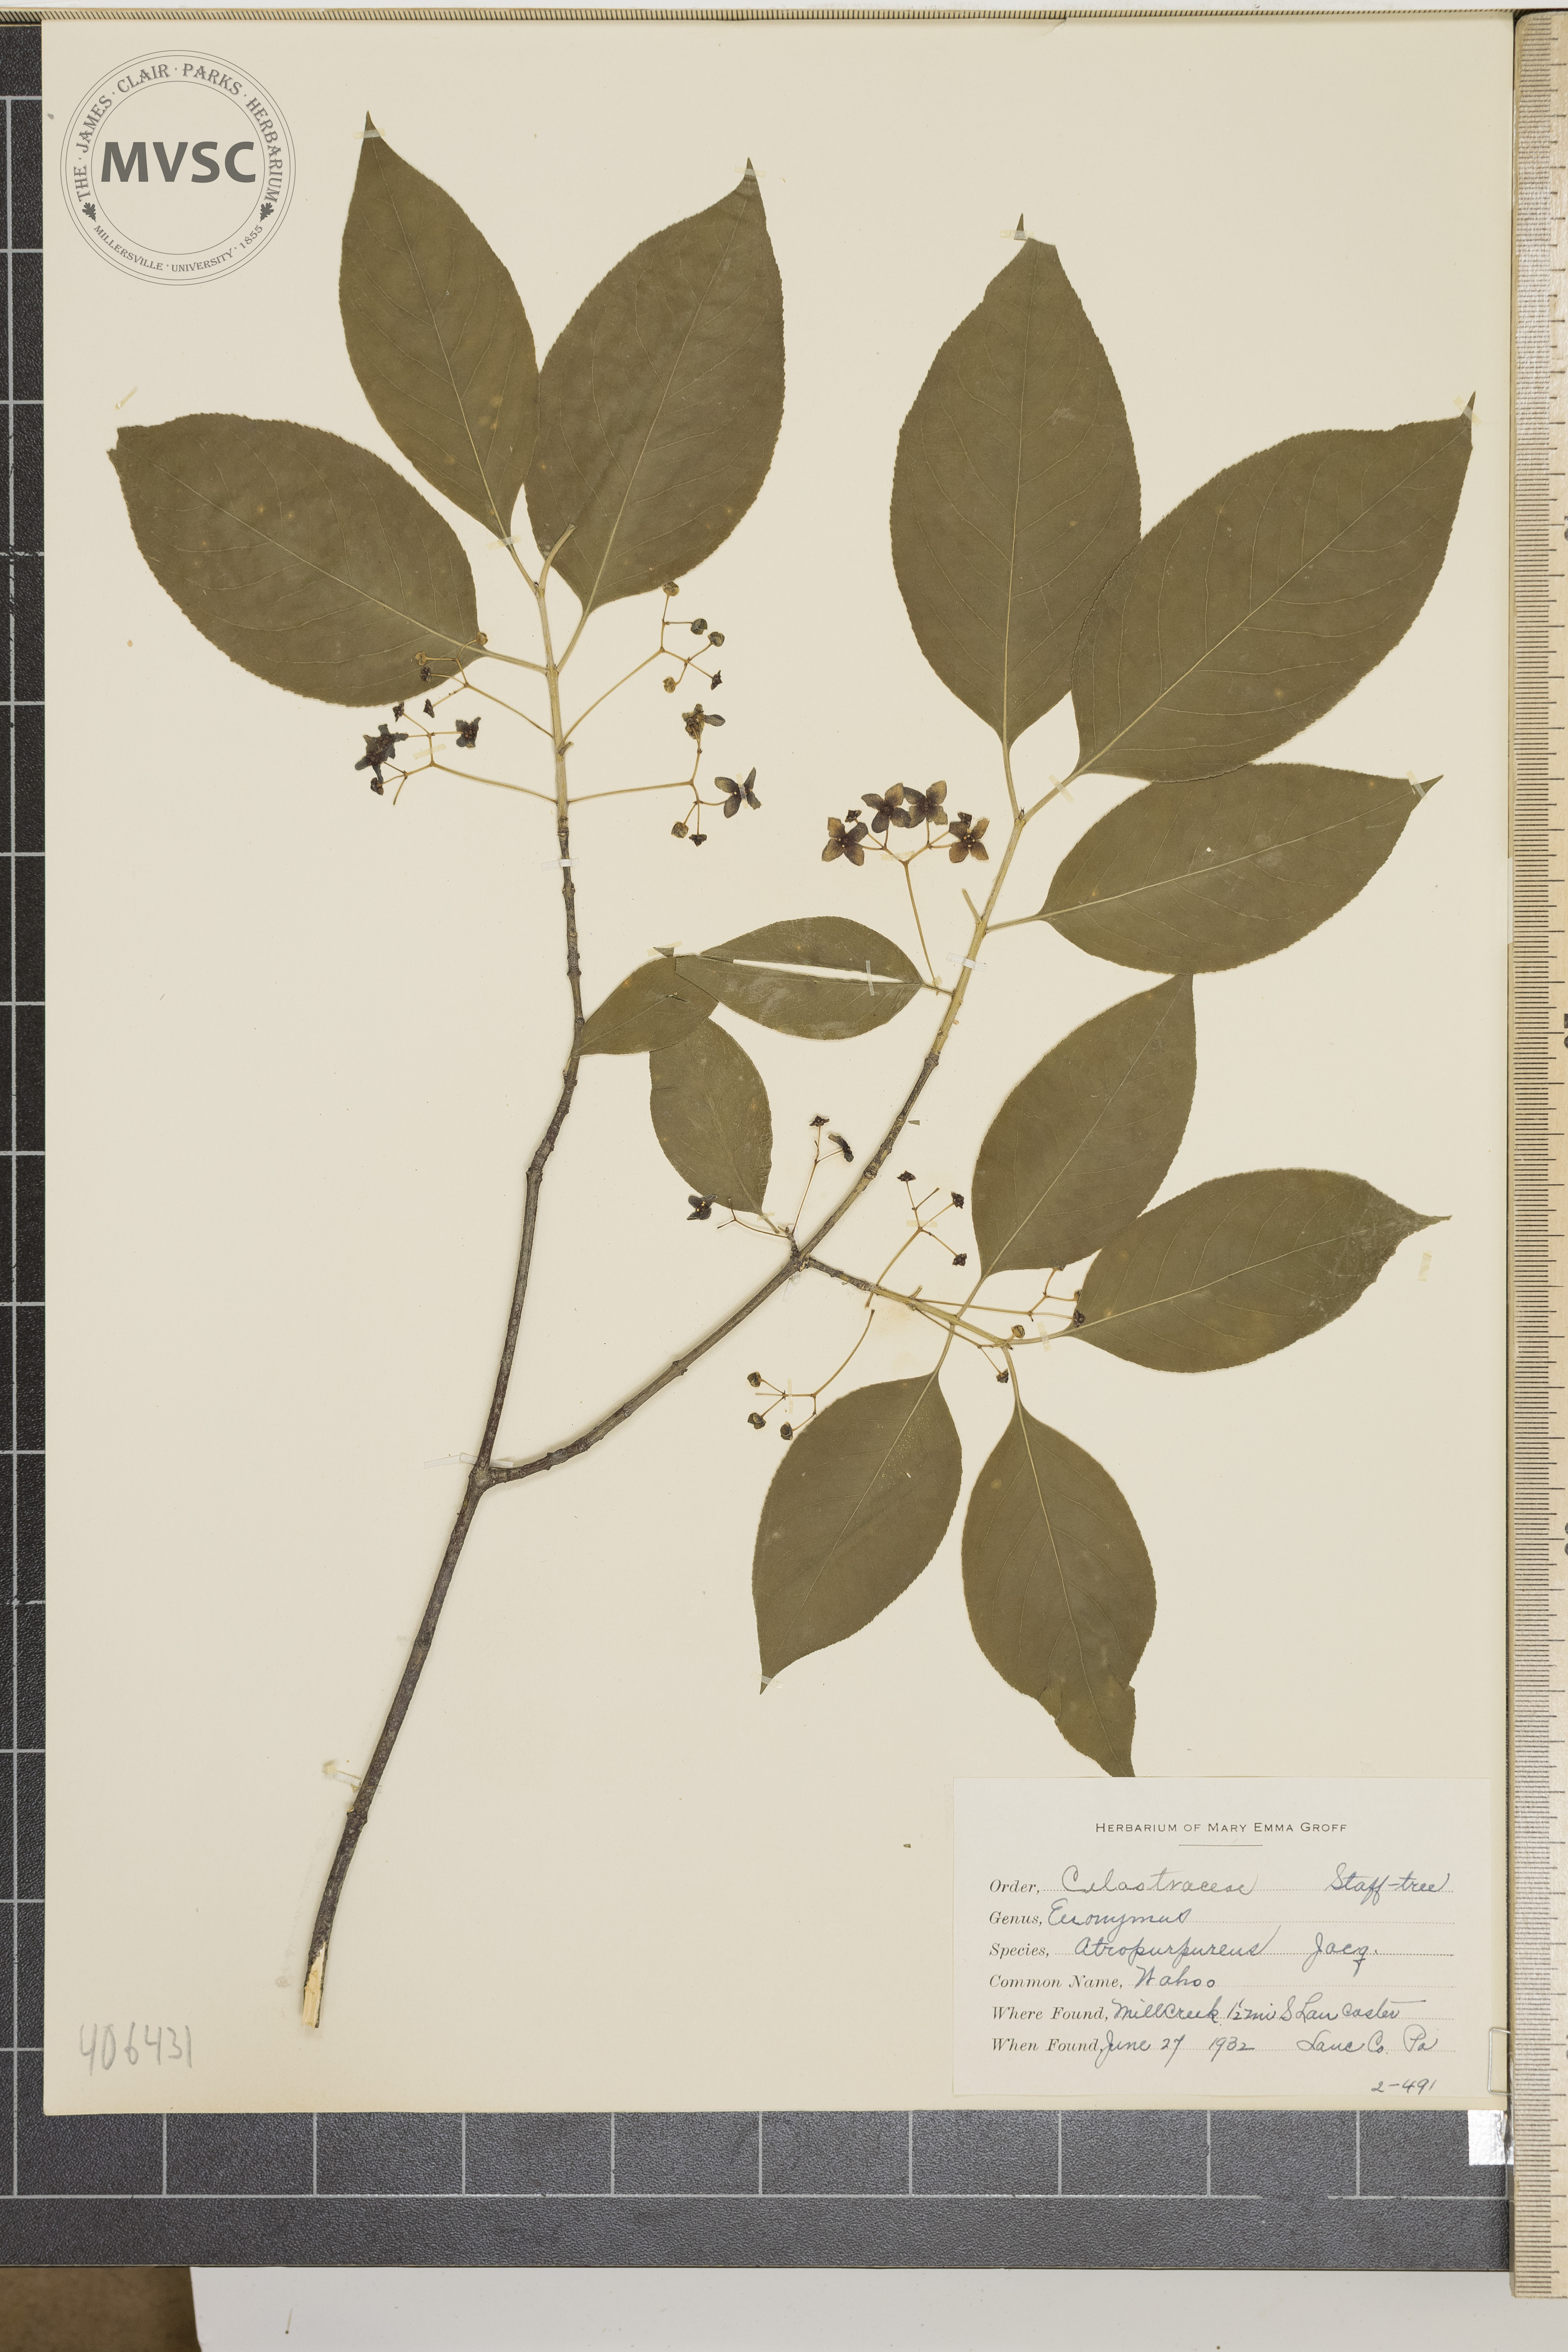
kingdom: Plantae
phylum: Tracheophyta
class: Magnoliopsida
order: Celastrales
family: Celastraceae
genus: Euonymus
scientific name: Euonymus atropurpureus
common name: Wahoo
